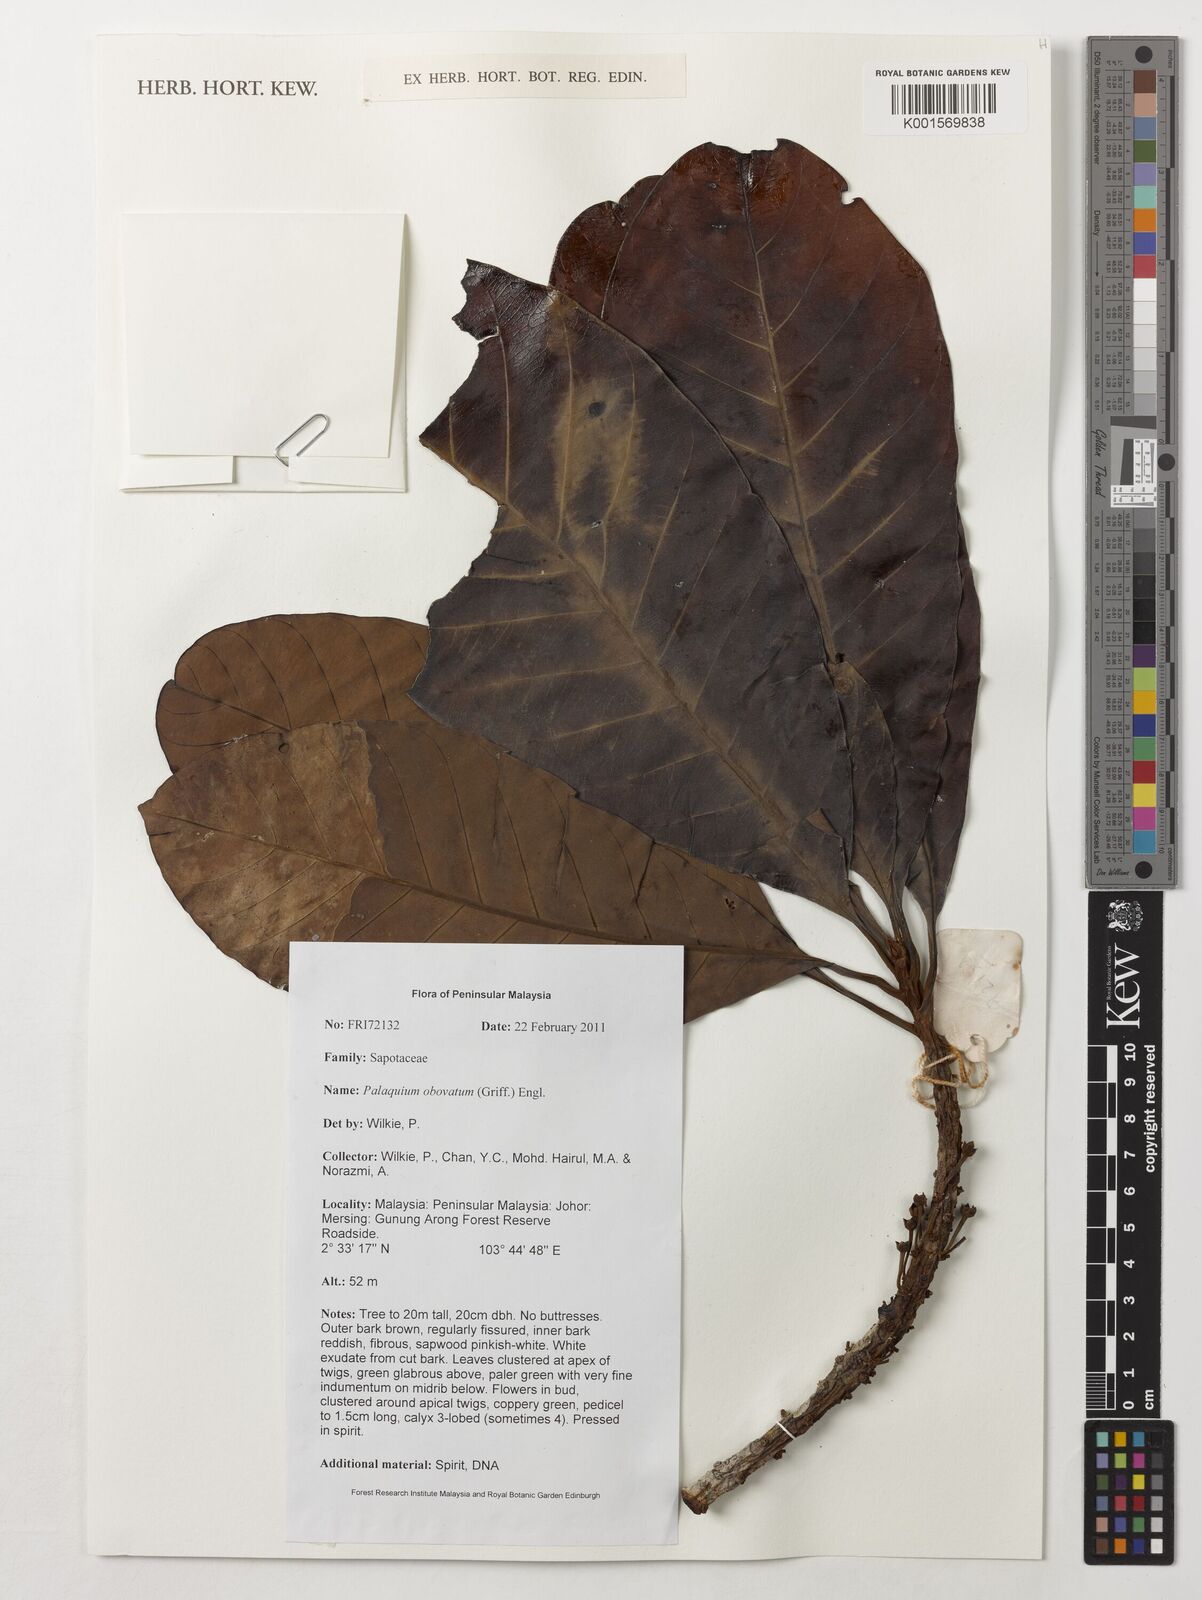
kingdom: Plantae
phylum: Tracheophyta
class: Magnoliopsida
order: Ericales
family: Sapotaceae
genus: Palaquium
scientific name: Palaquium obovatum
